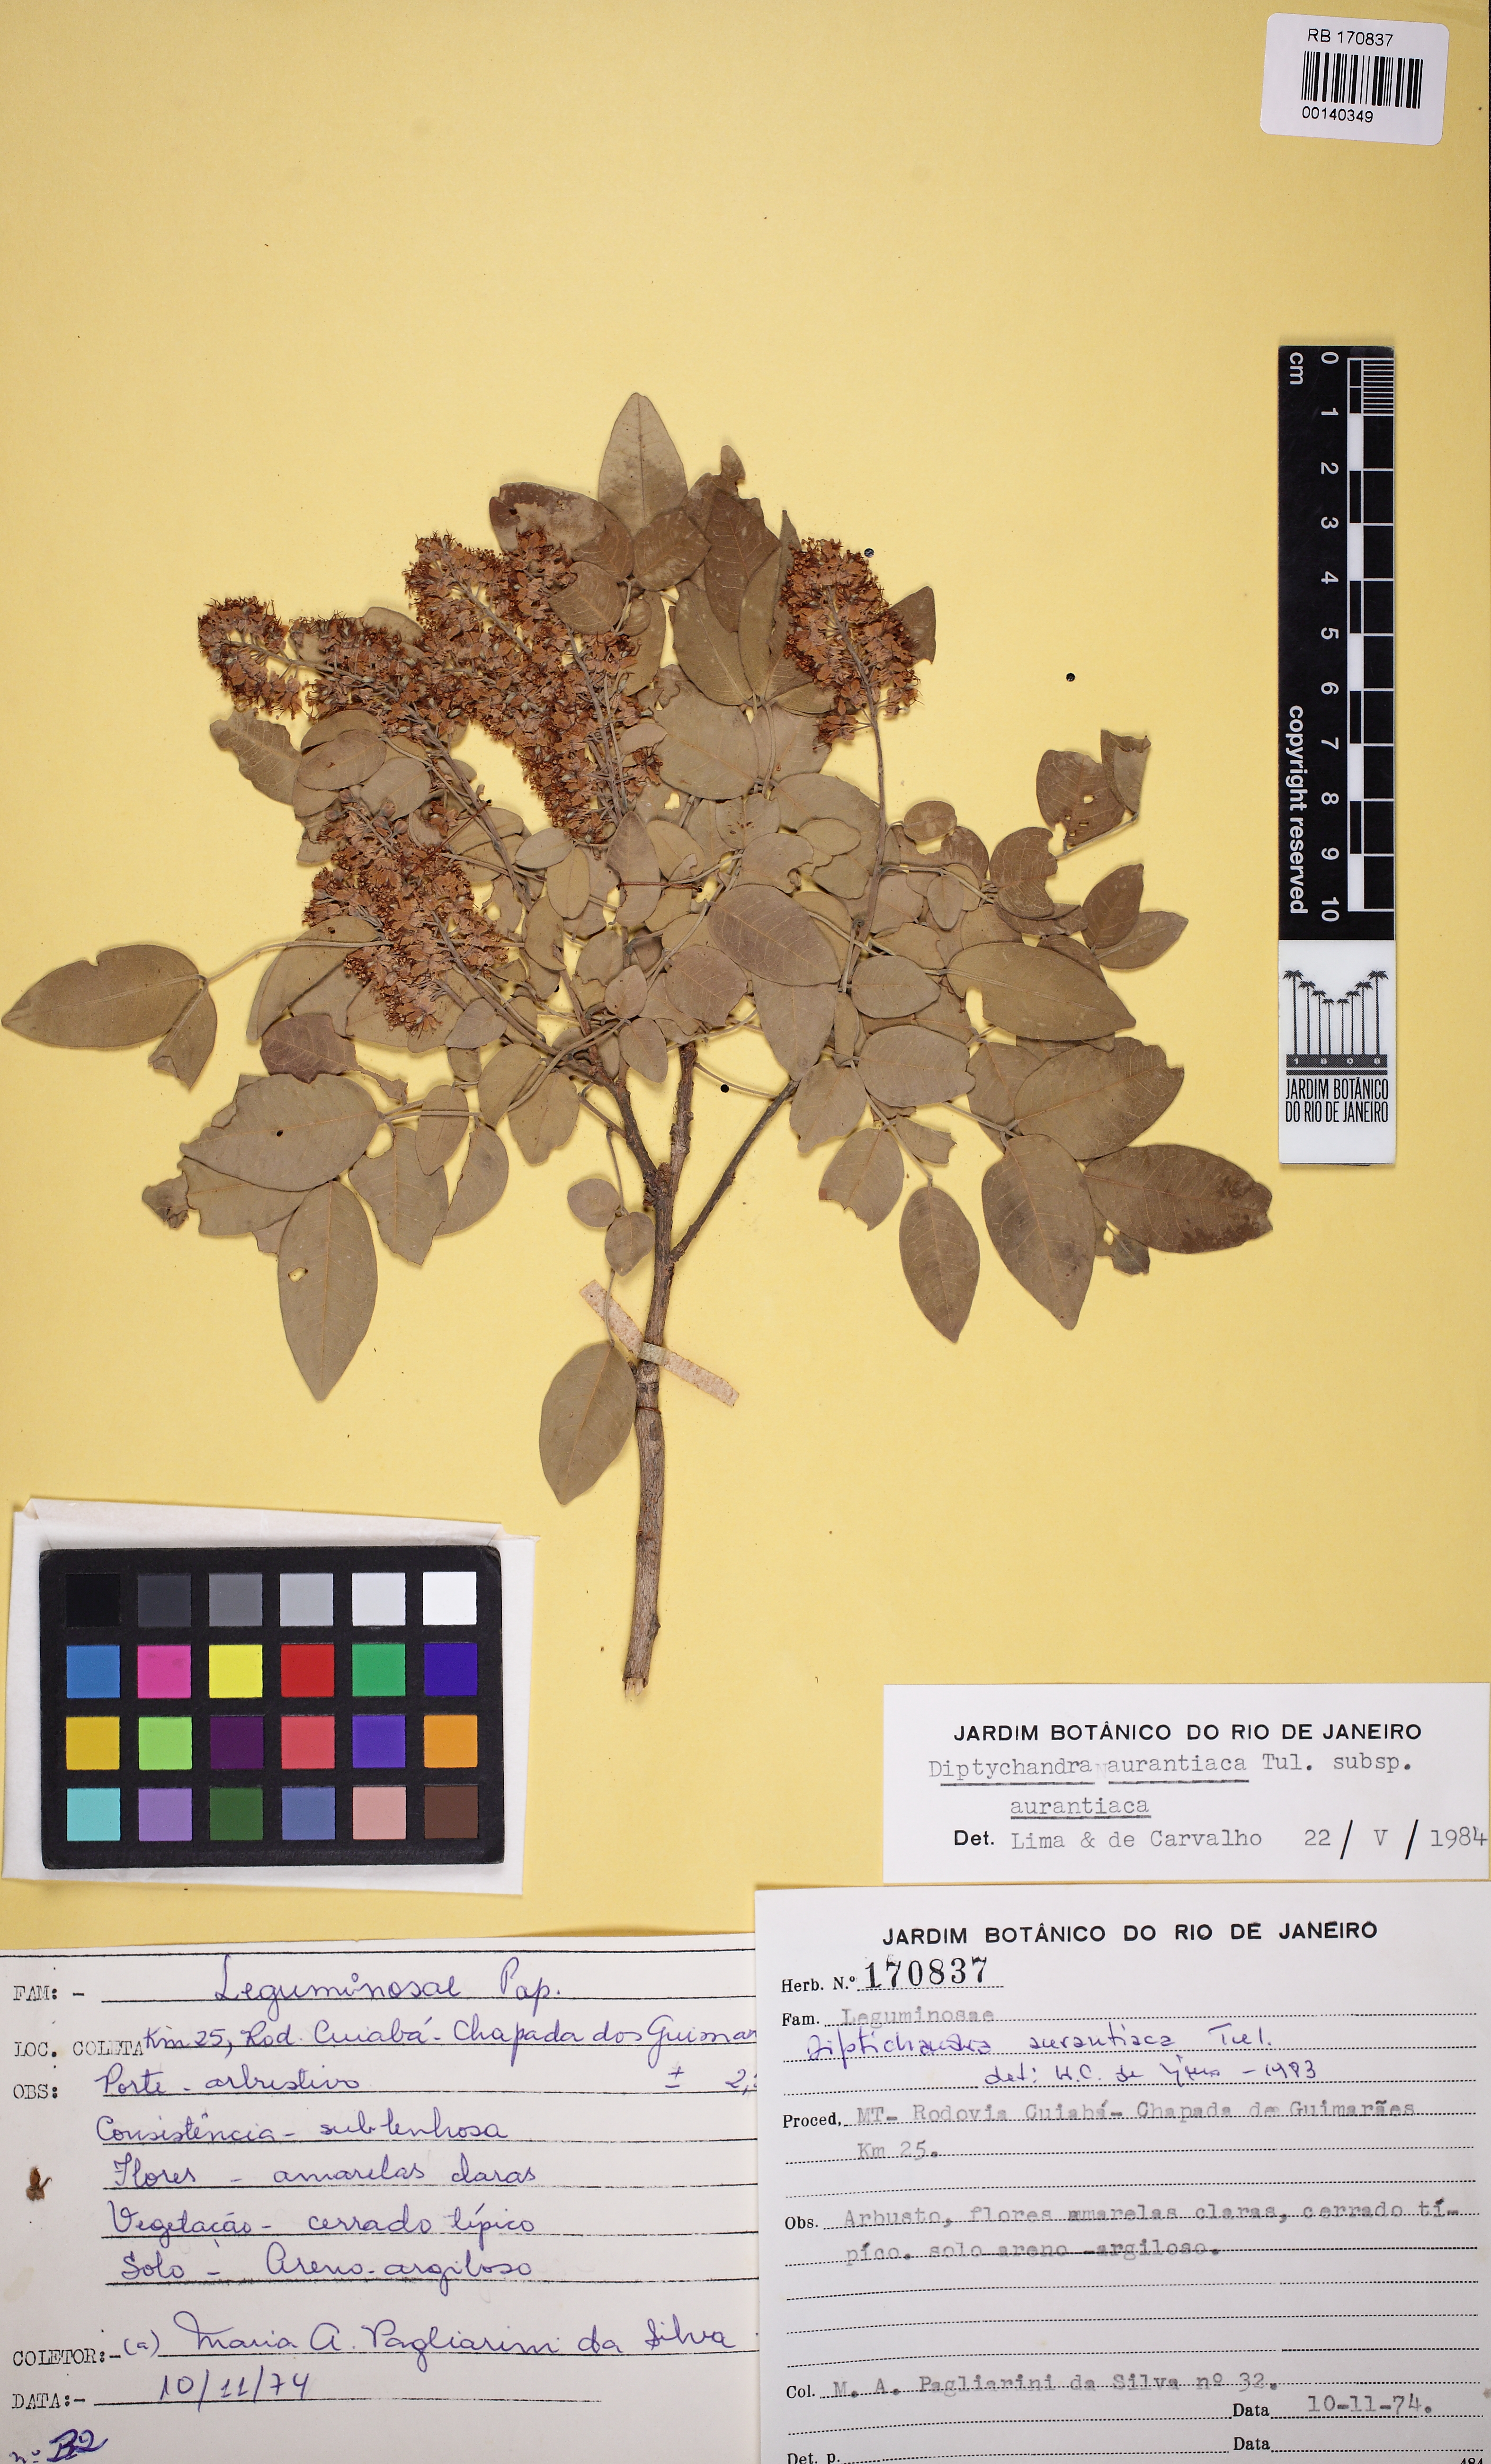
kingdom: Plantae
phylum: Tracheophyta
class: Magnoliopsida
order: Fabales
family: Fabaceae
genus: Diptychandra
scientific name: Diptychandra aurantiaca
